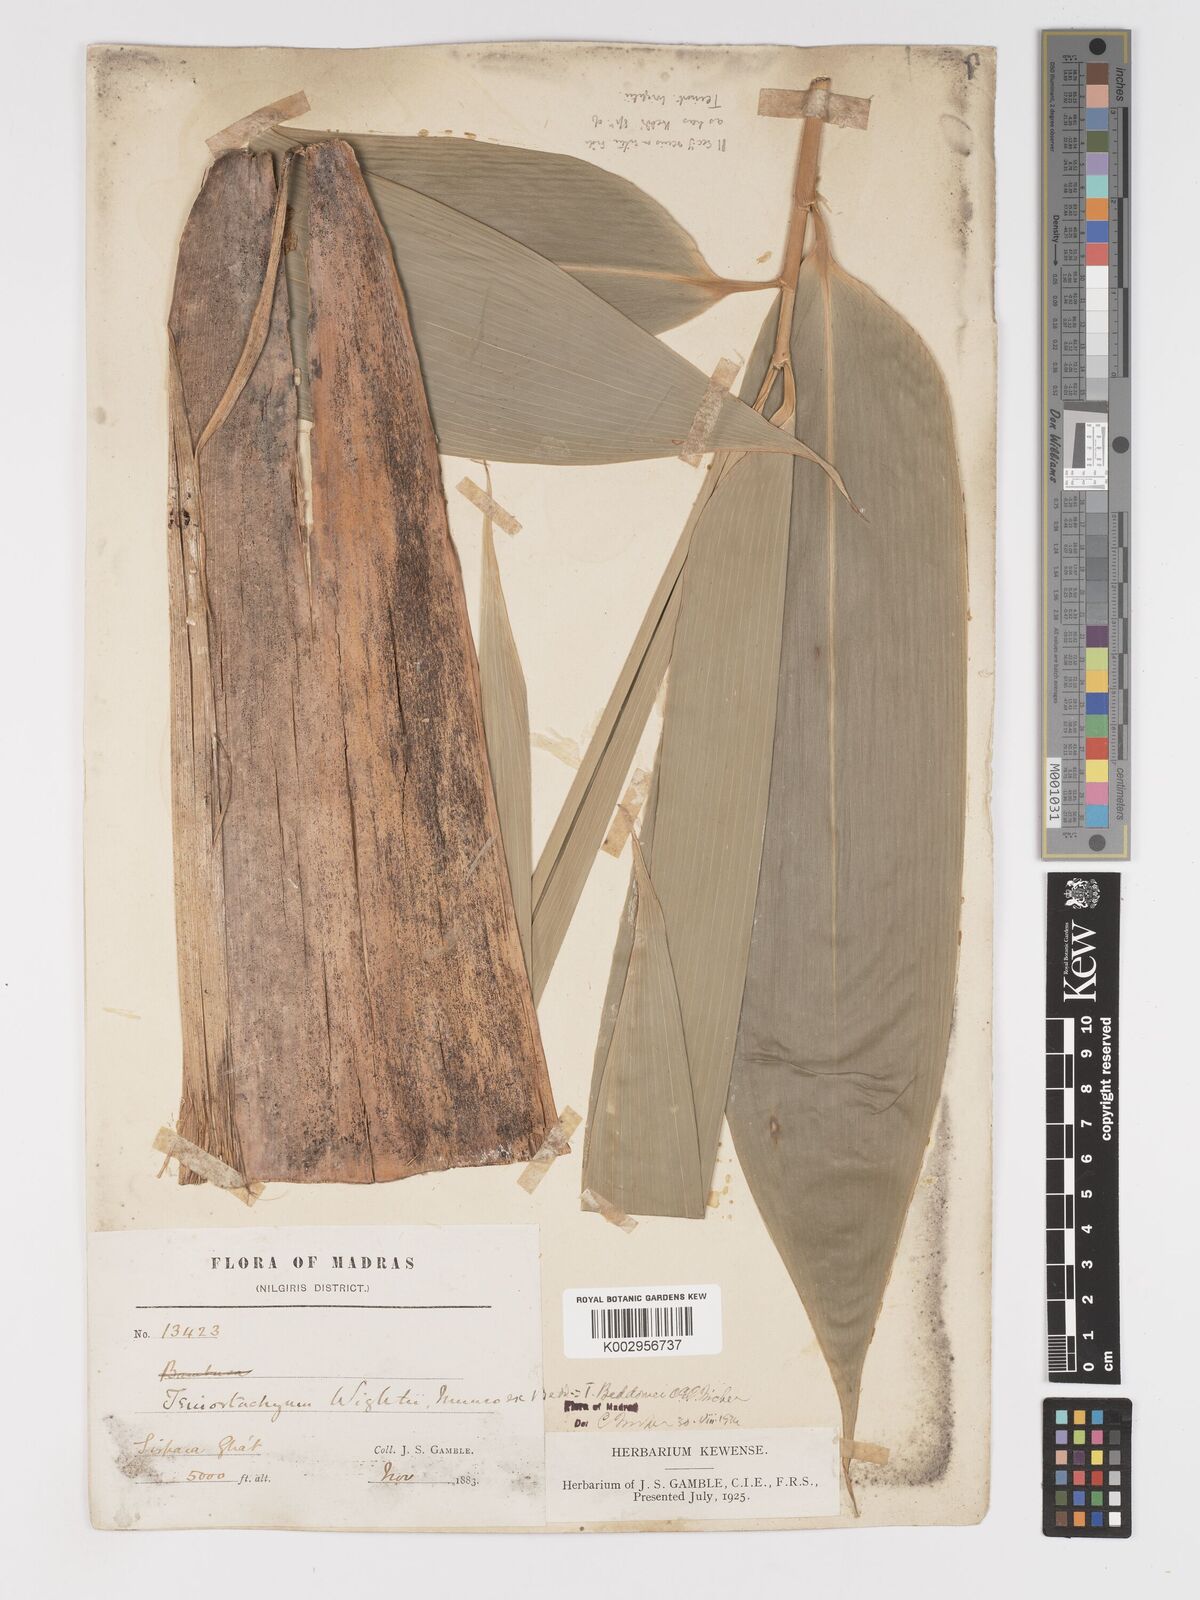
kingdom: Plantae
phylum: Tracheophyta
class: Liliopsida
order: Poales
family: Poaceae
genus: Schizostachyum
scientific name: Schizostachyum beddomei
